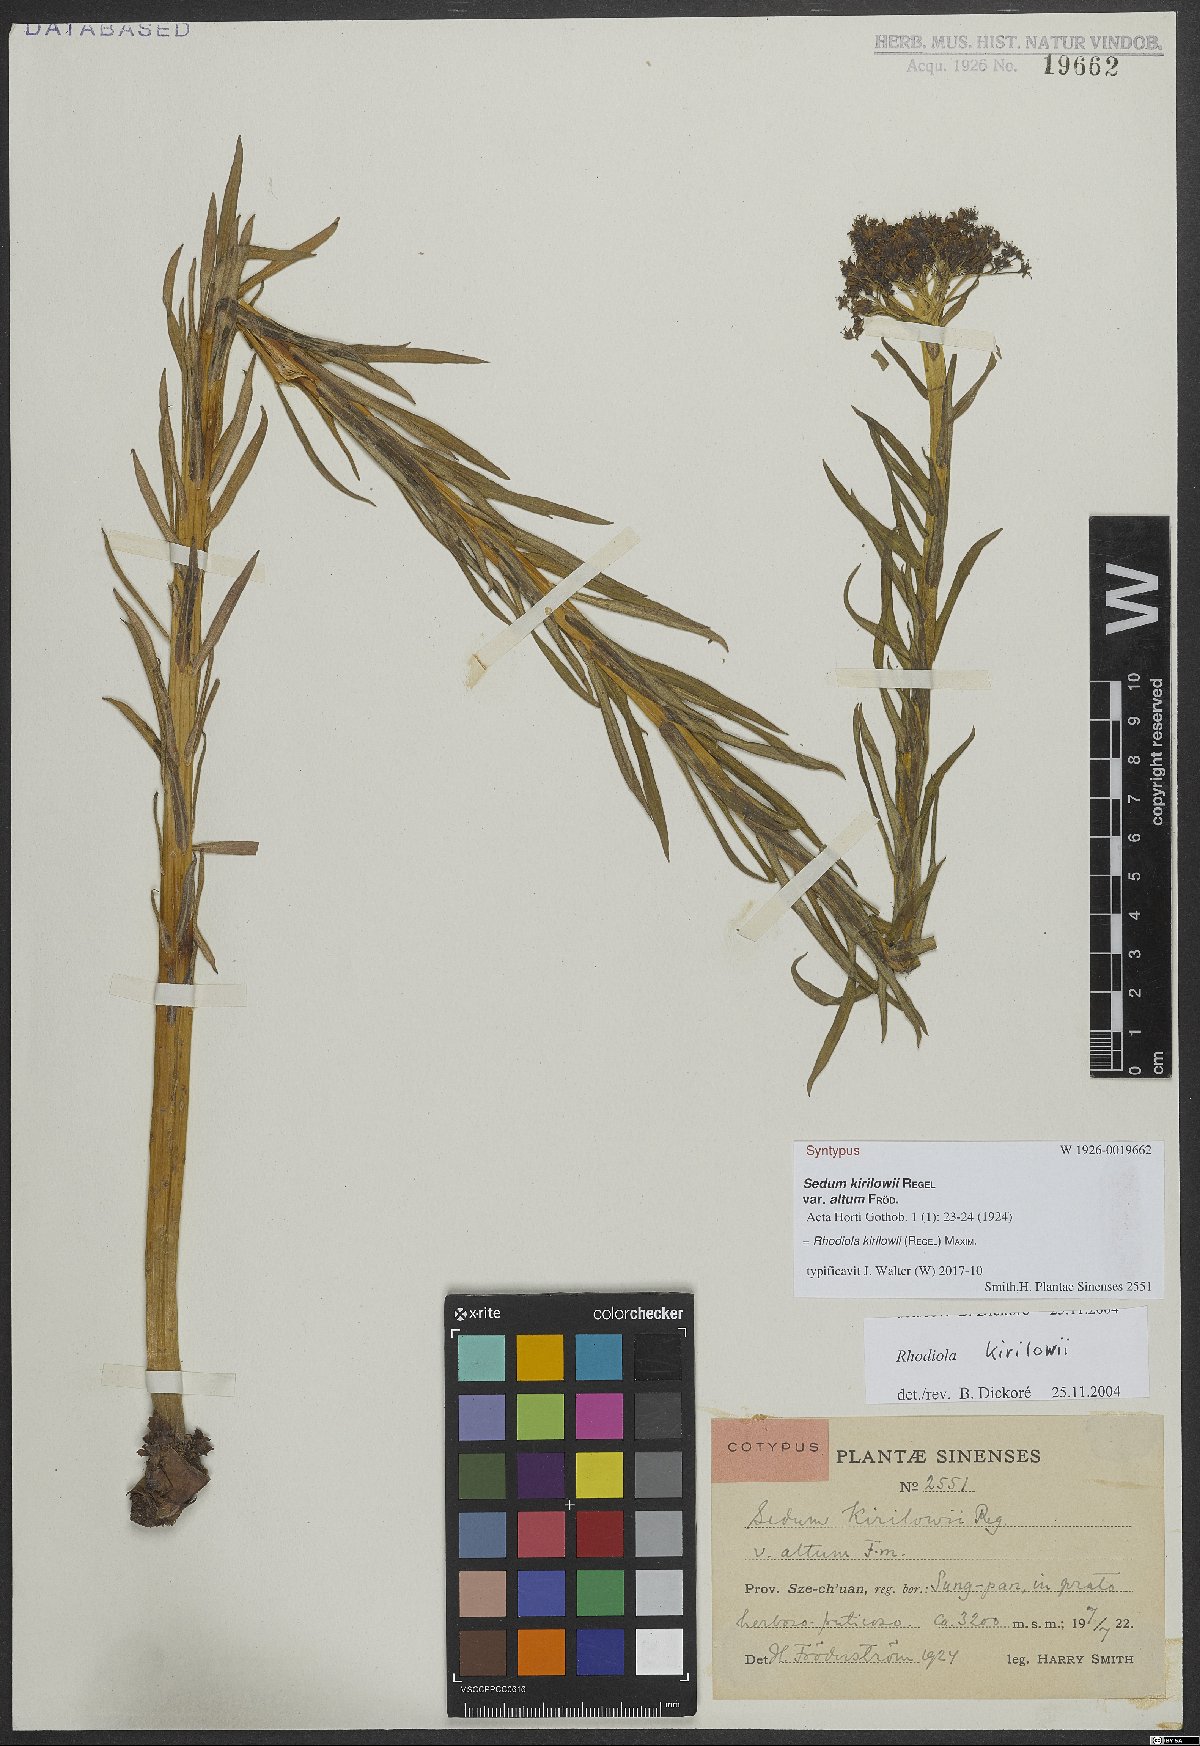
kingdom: Plantae
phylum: Tracheophyta
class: Magnoliopsida
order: Saxifragales
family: Crassulaceae
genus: Rhodiola
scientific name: Rhodiola kirilowii
